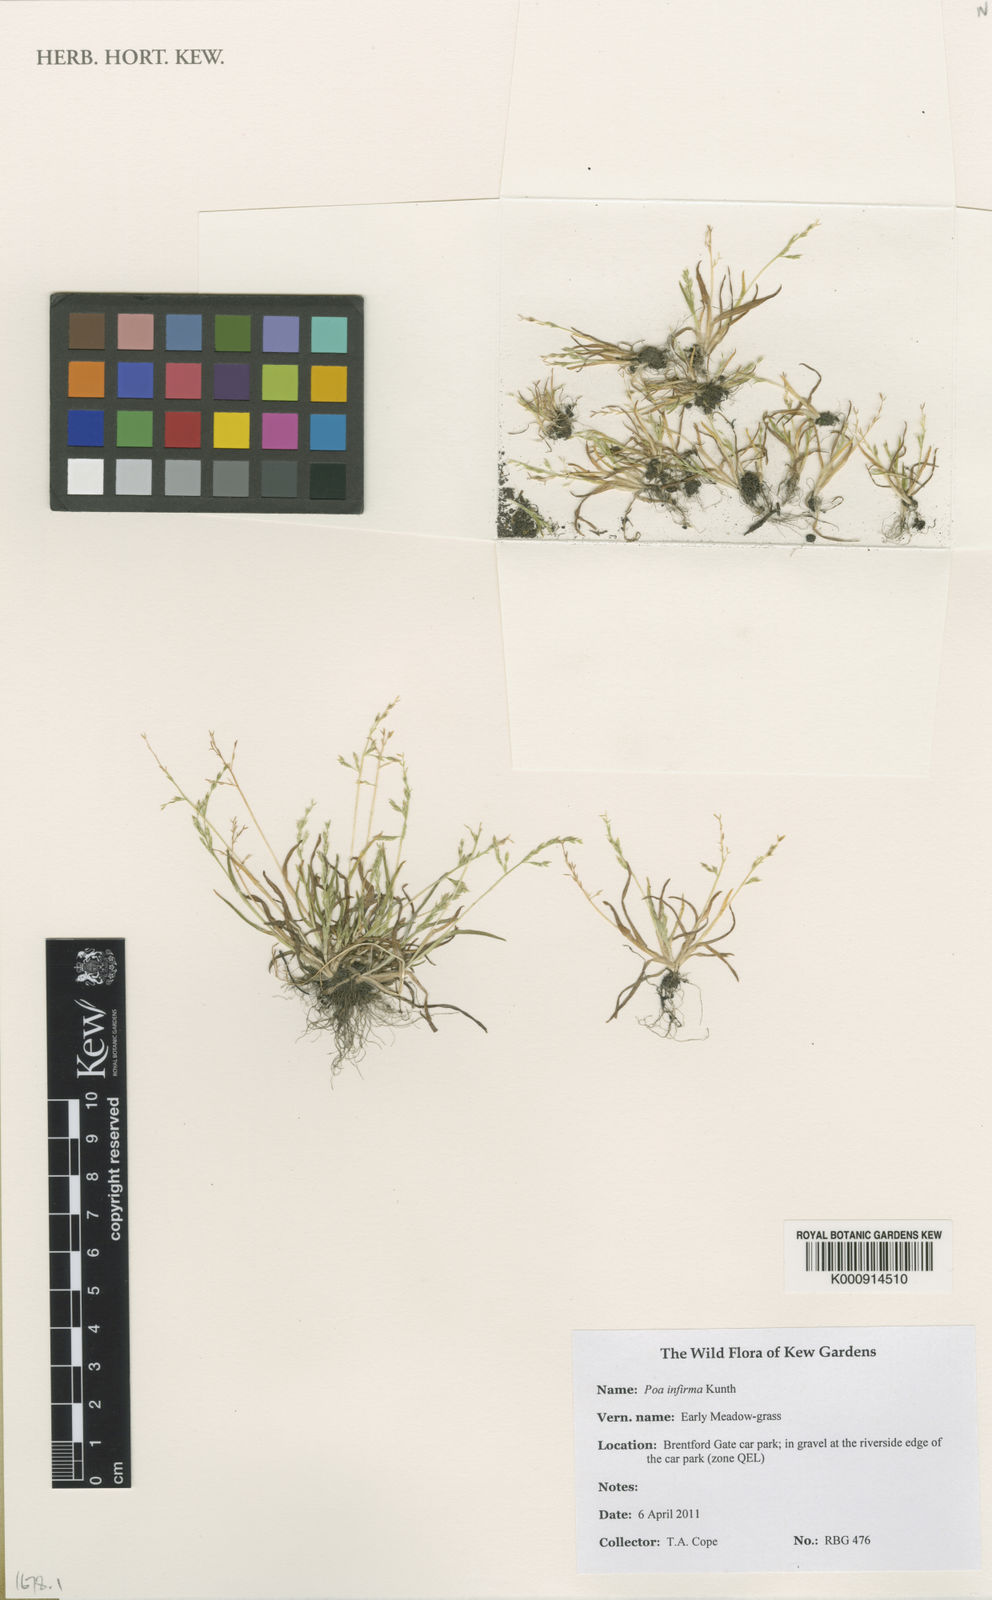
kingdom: Plantae
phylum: Tracheophyta
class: Liliopsida
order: Poales
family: Poaceae
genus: Poa
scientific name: Poa infirma
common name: Weak bluegrass
